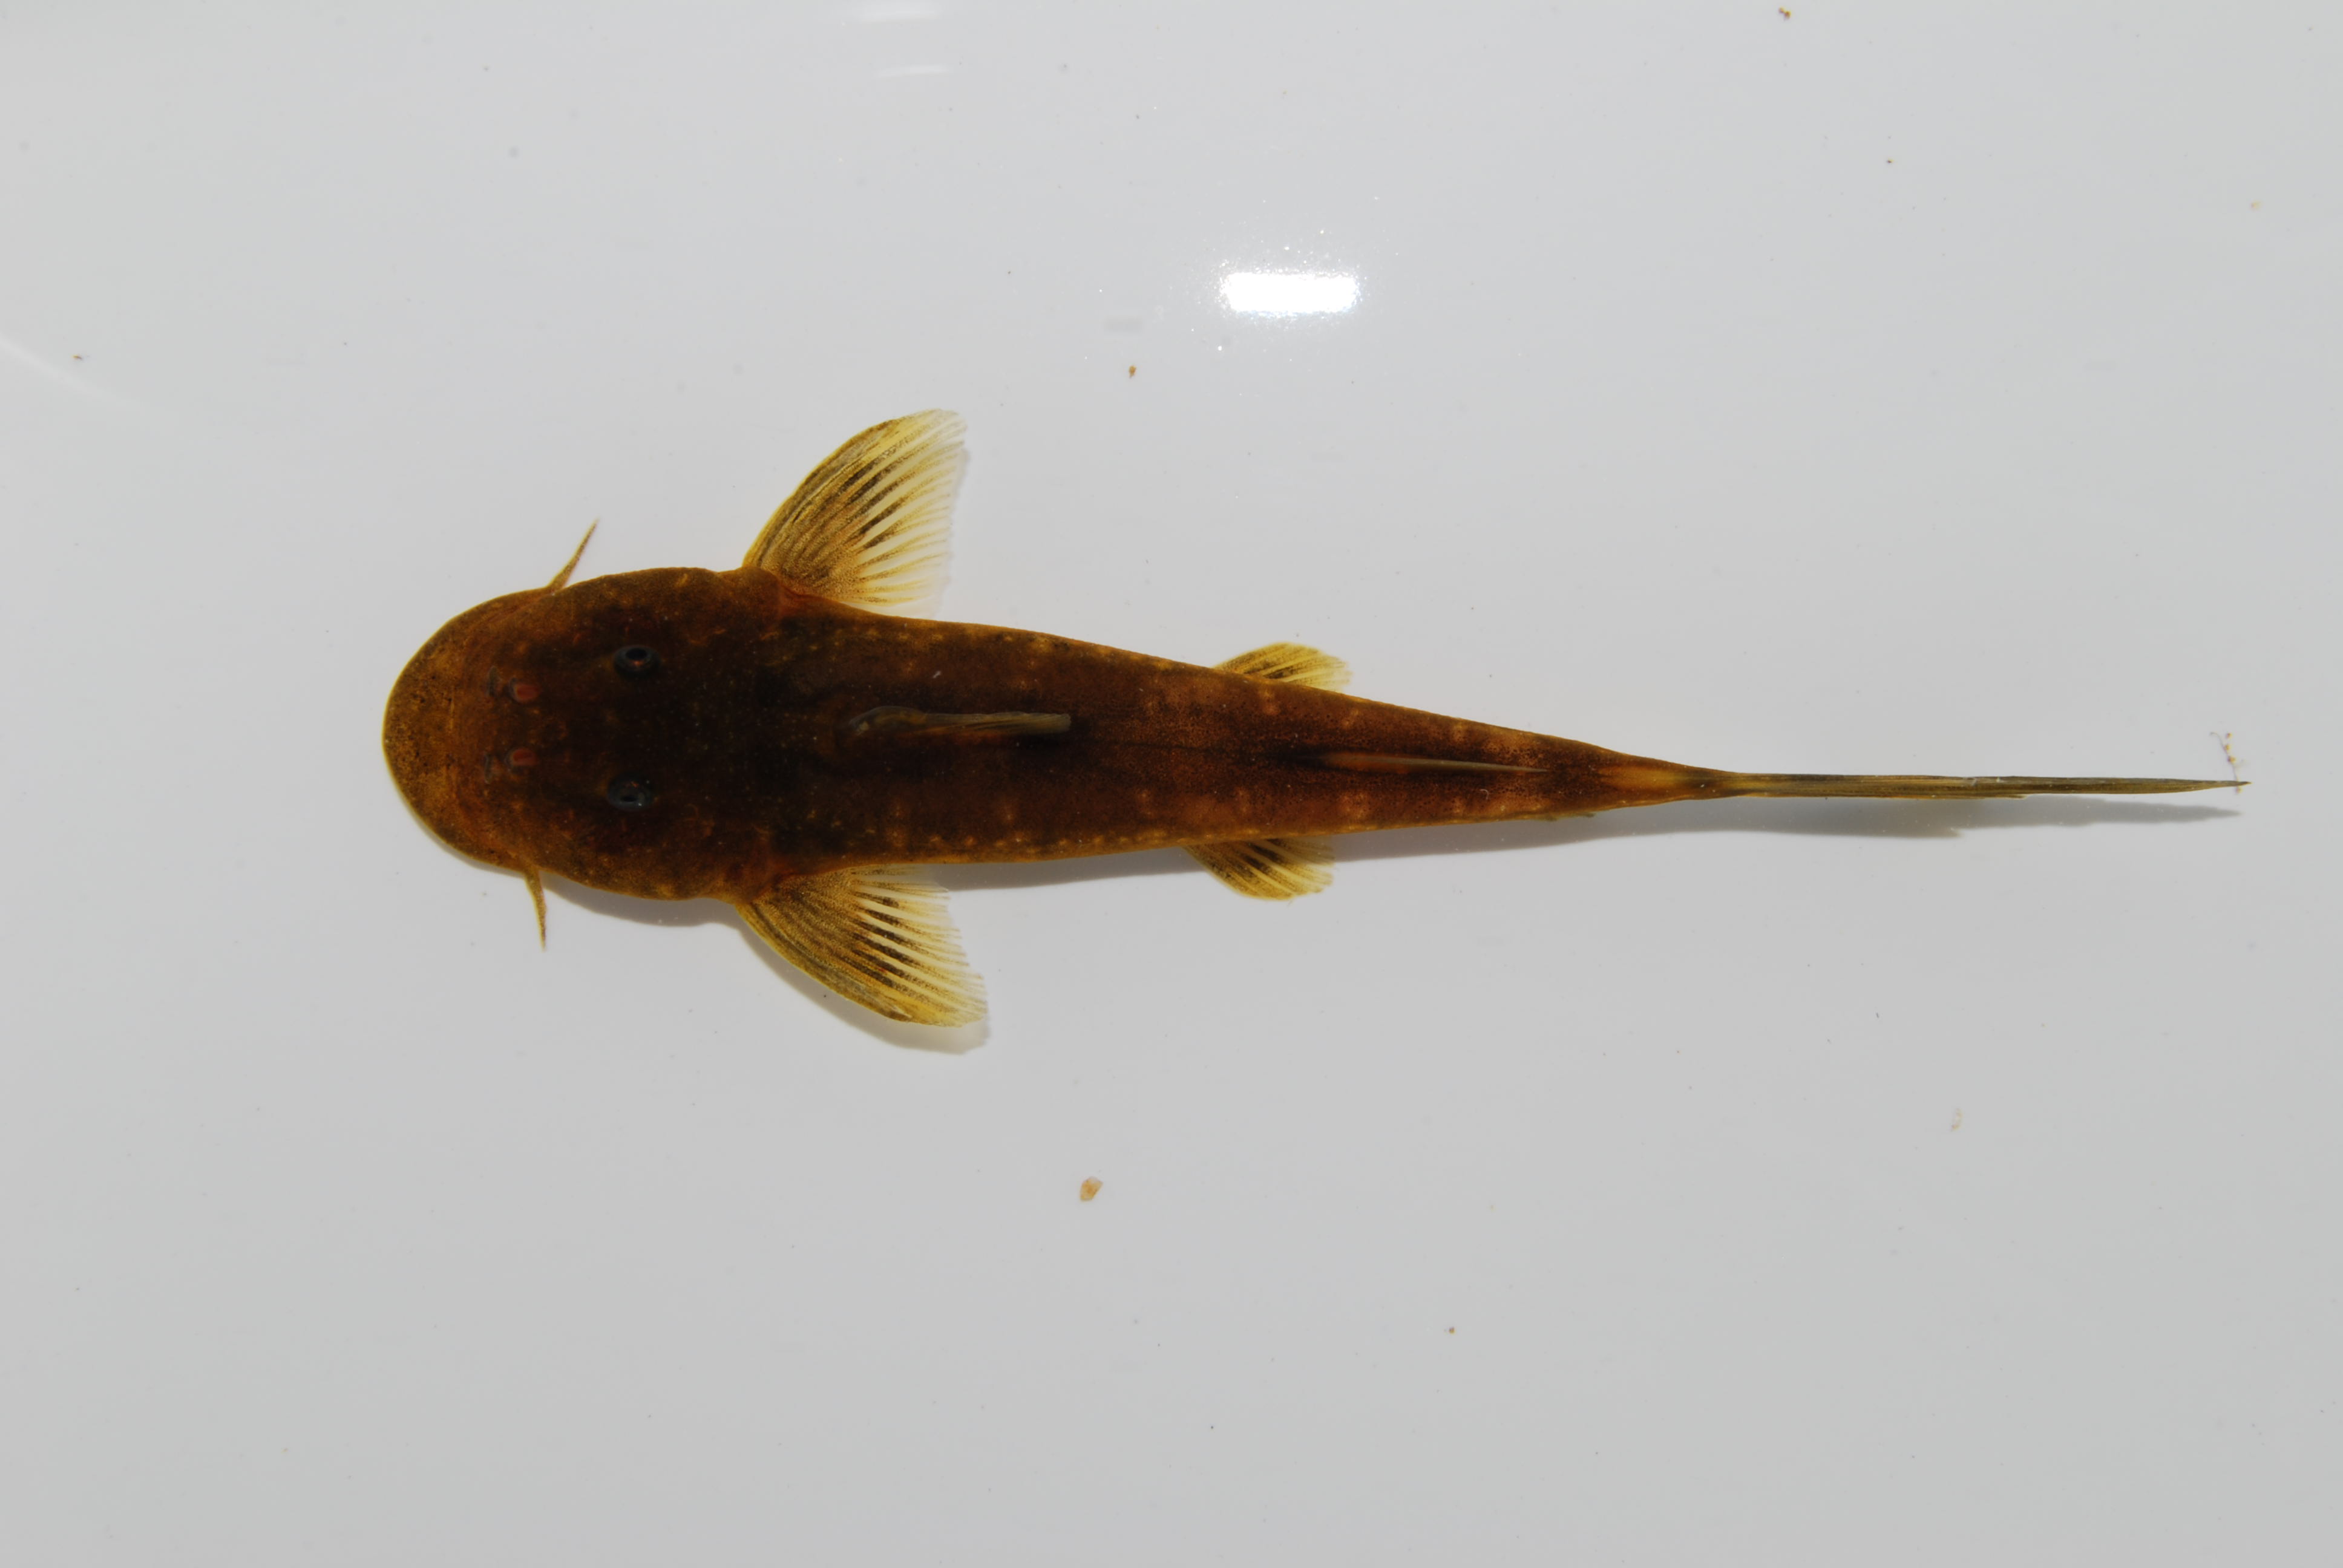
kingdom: Animalia
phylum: Chordata
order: Siluriformes
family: Mochokidae
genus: Chiloglanis
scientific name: Chiloglanis anoterus
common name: Pennant-tailed catlet
